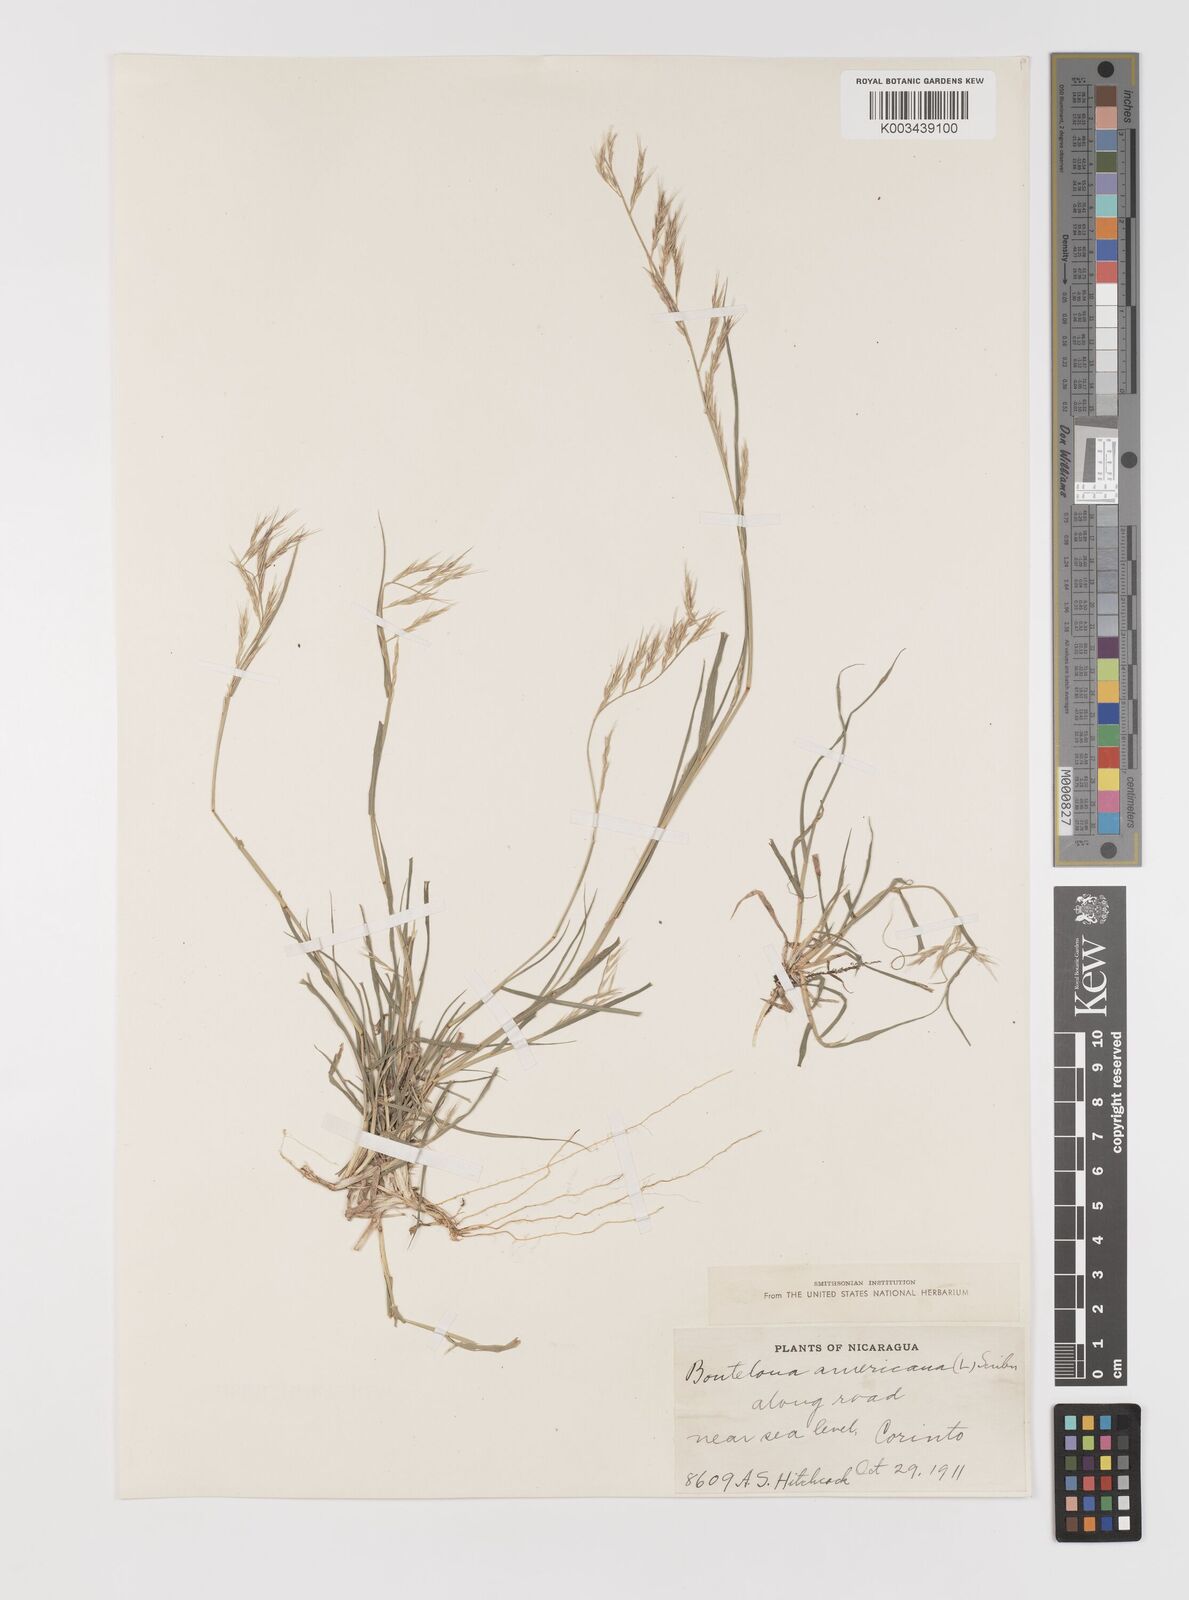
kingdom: Plantae
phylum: Tracheophyta
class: Liliopsida
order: Poales
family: Poaceae
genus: Bouteloua
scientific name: Bouteloua americana
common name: Mule grass
